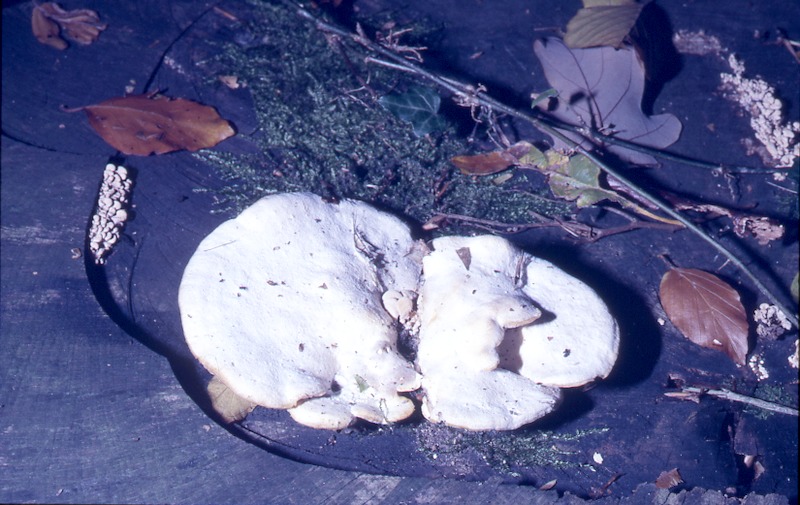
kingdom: Fungi
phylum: Basidiomycota
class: Agaricomycetes
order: Polyporales
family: Incrustoporiaceae
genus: Tyromyces
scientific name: Tyromyces chioneus
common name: White cheese polypore
